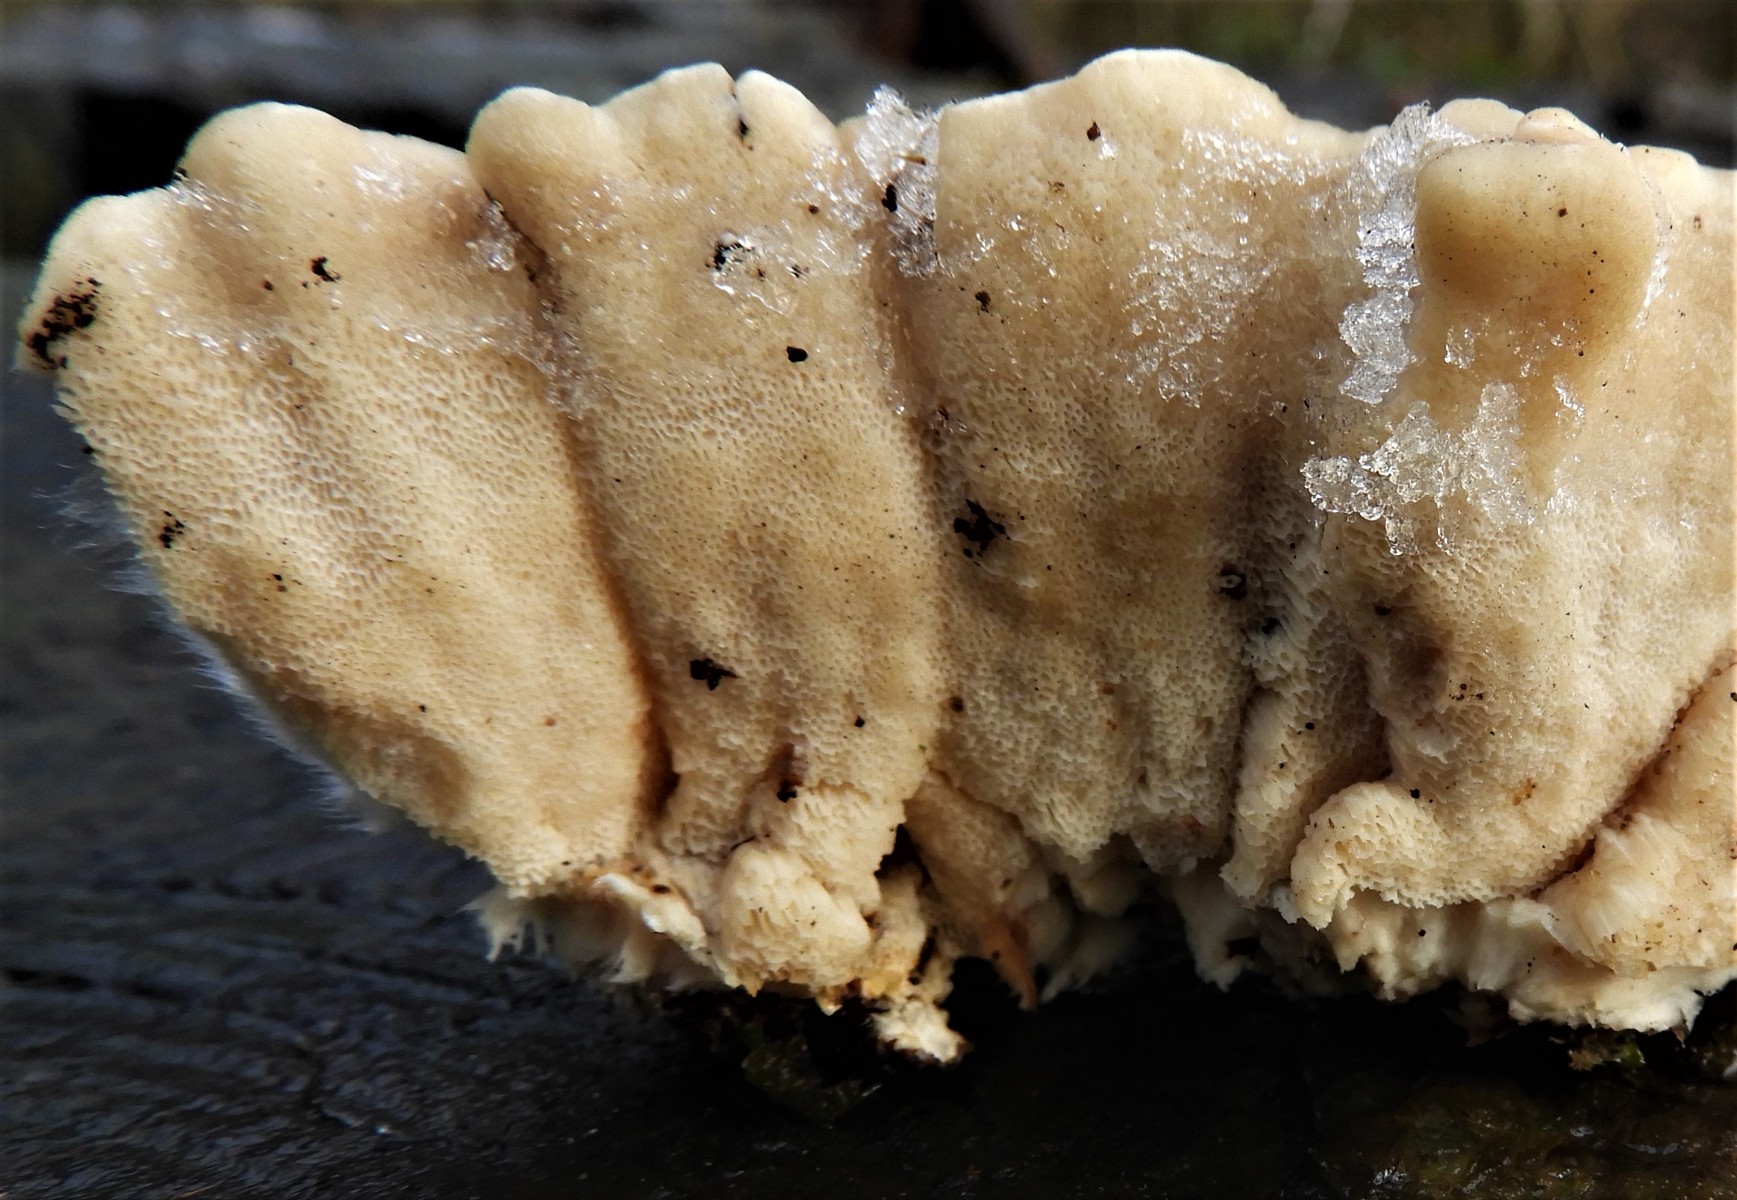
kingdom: Fungi
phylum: Basidiomycota
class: Agaricomycetes
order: Russulales
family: Hericiaceae
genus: Laxitextum
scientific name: Laxitextum bicolor
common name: tvefarvet filtskind
